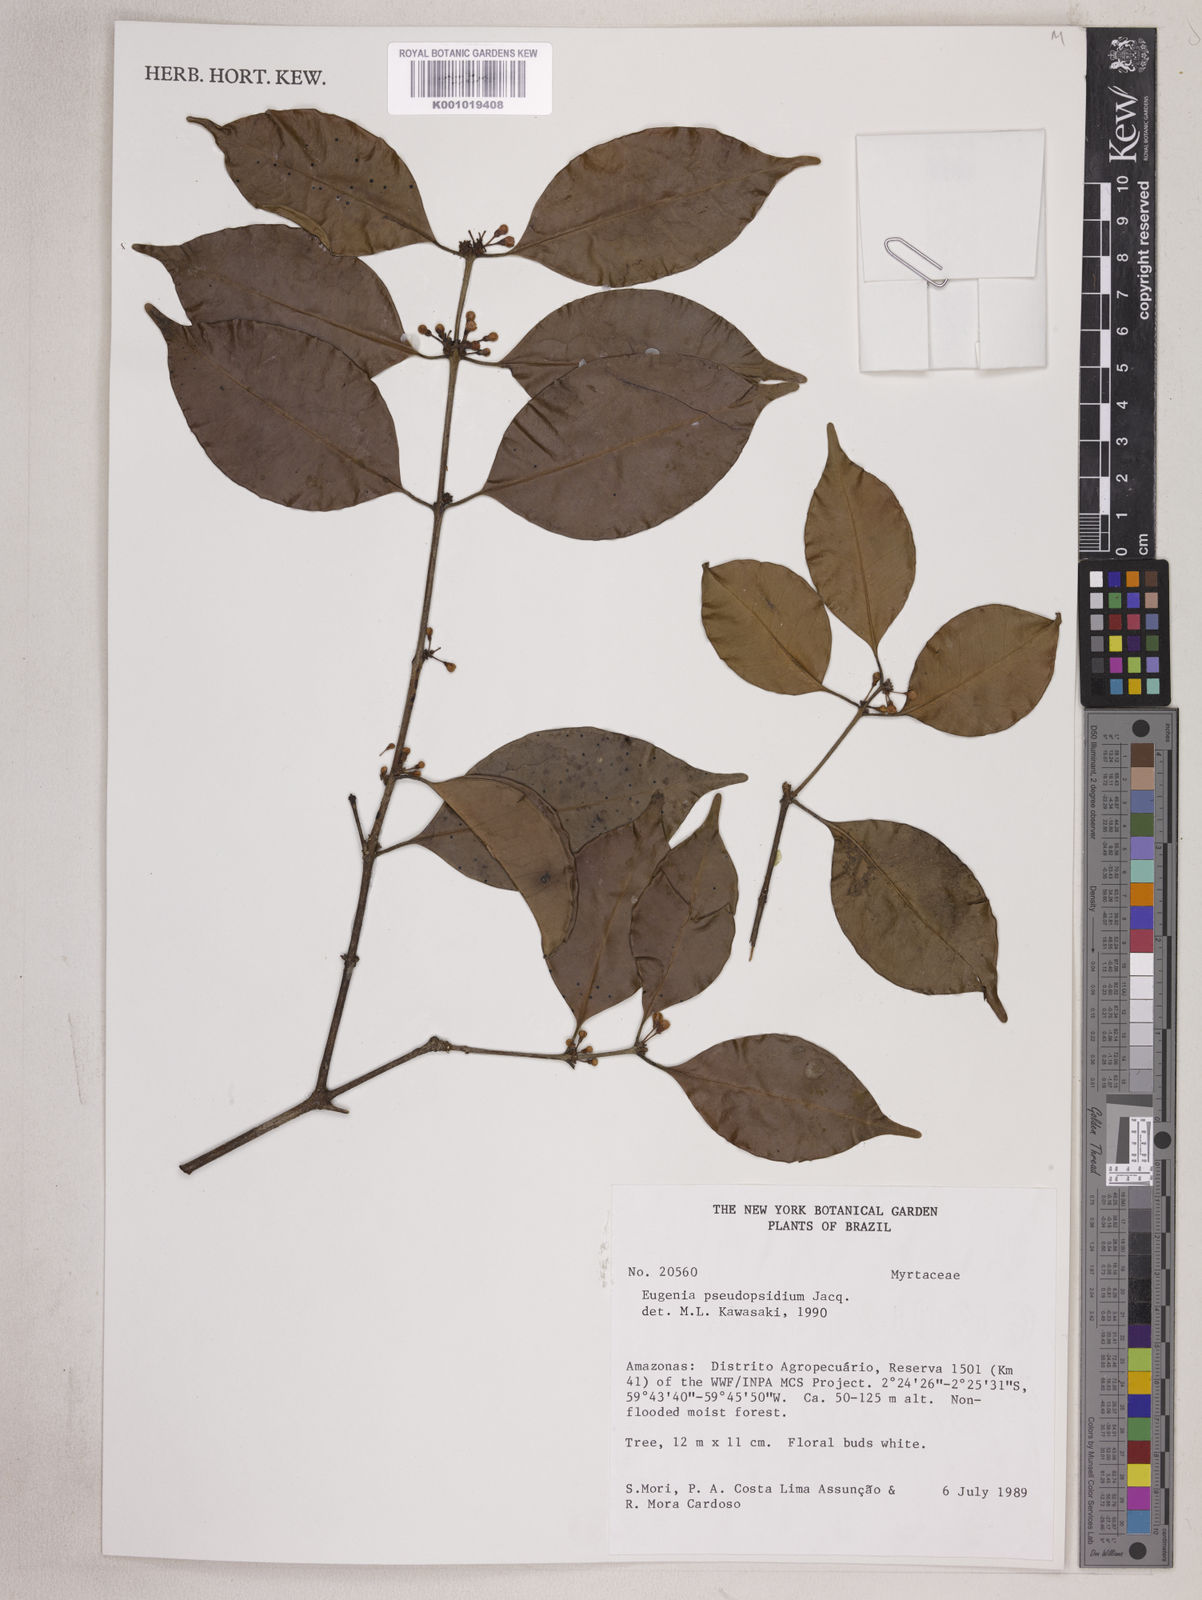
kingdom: Plantae
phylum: Tracheophyta
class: Magnoliopsida
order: Myrtales
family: Myrtaceae
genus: Eugenia
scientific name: Eugenia pseudopsidium
